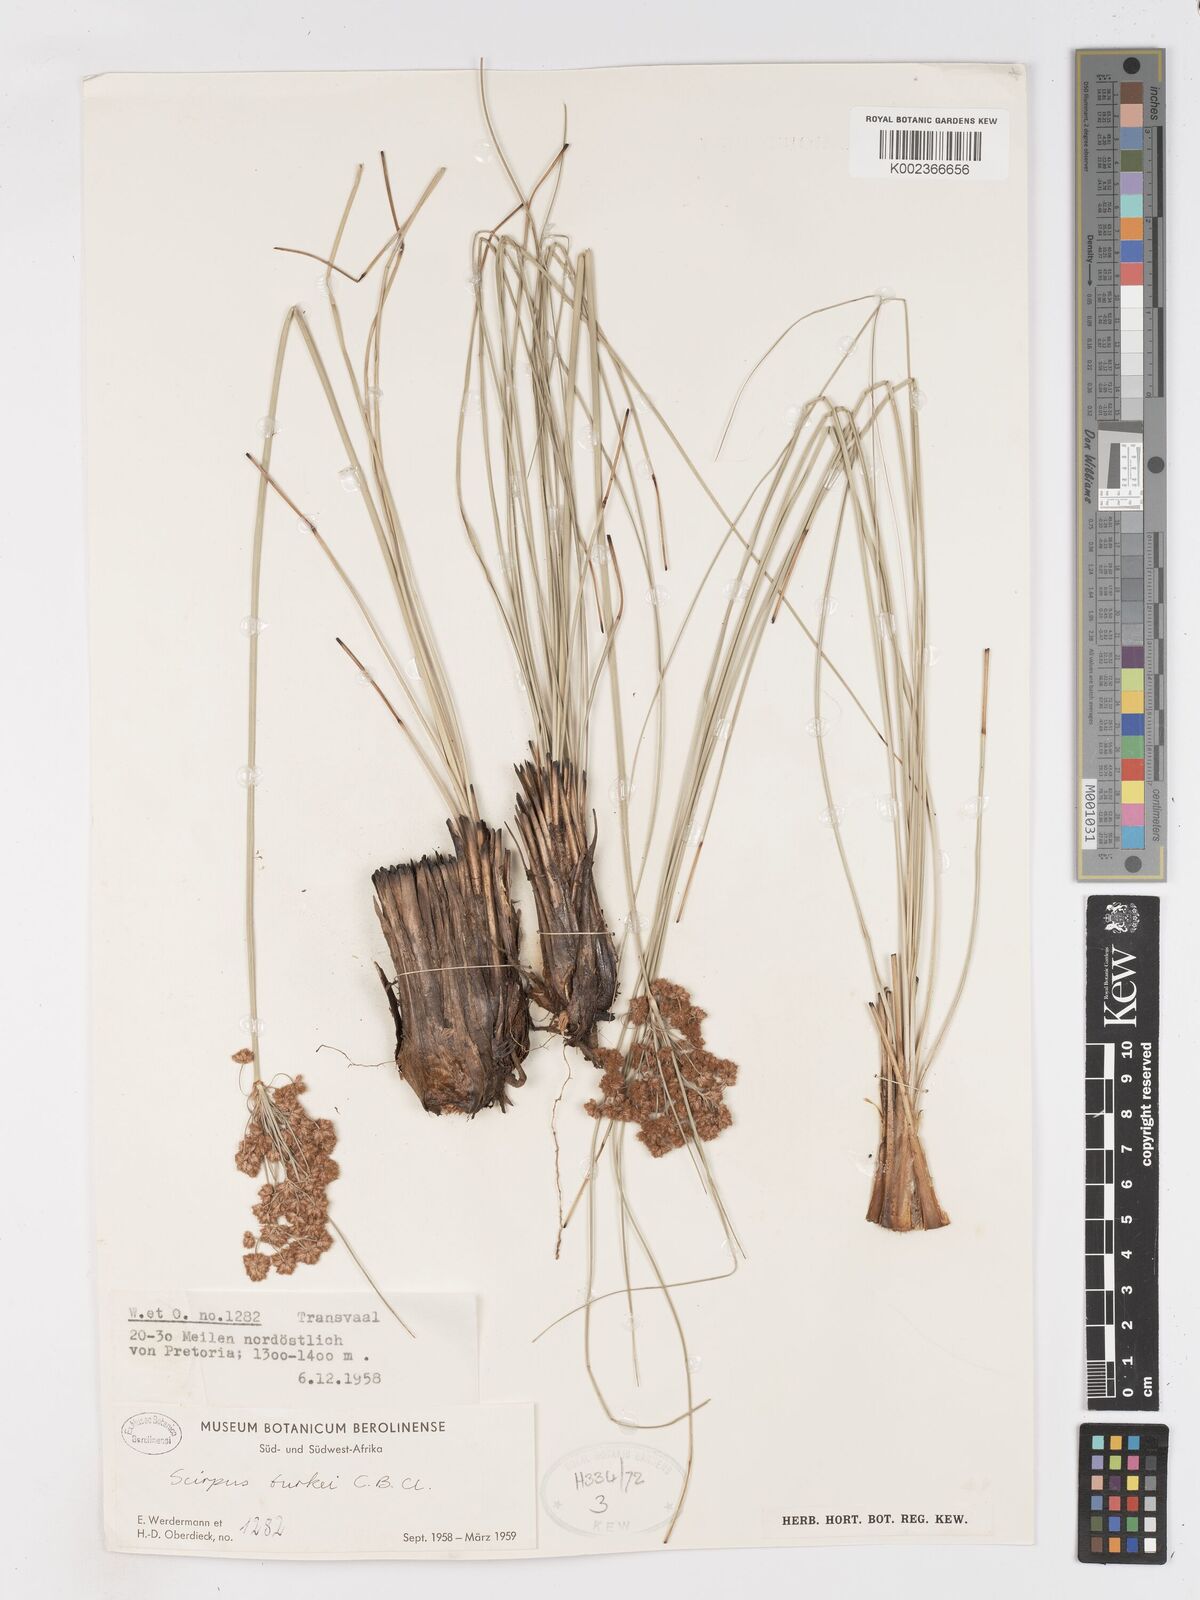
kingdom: Plantae
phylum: Tracheophyta
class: Liliopsida
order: Poales
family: Cyperaceae
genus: Scirpoides
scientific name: Scirpoides burkei
